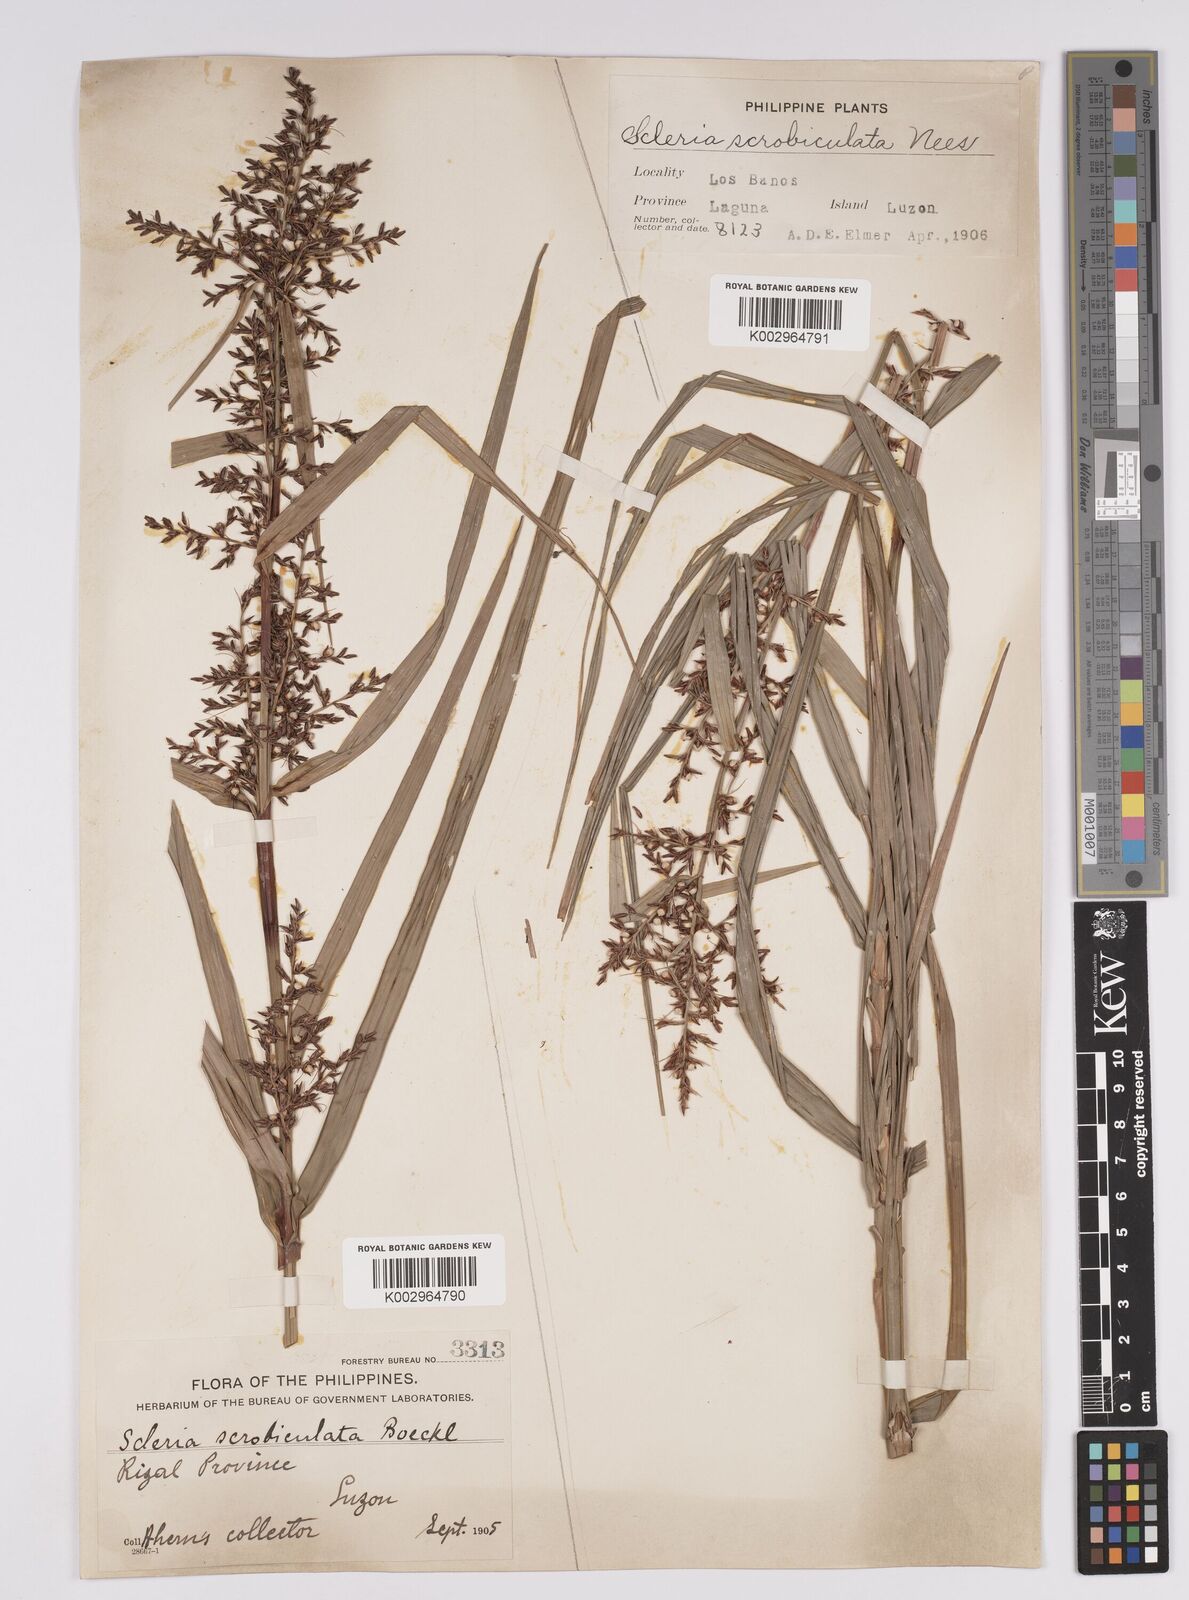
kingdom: Plantae
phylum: Tracheophyta
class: Liliopsida
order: Poales
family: Cyperaceae
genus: Scleria
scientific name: Scleria scrobiculata
